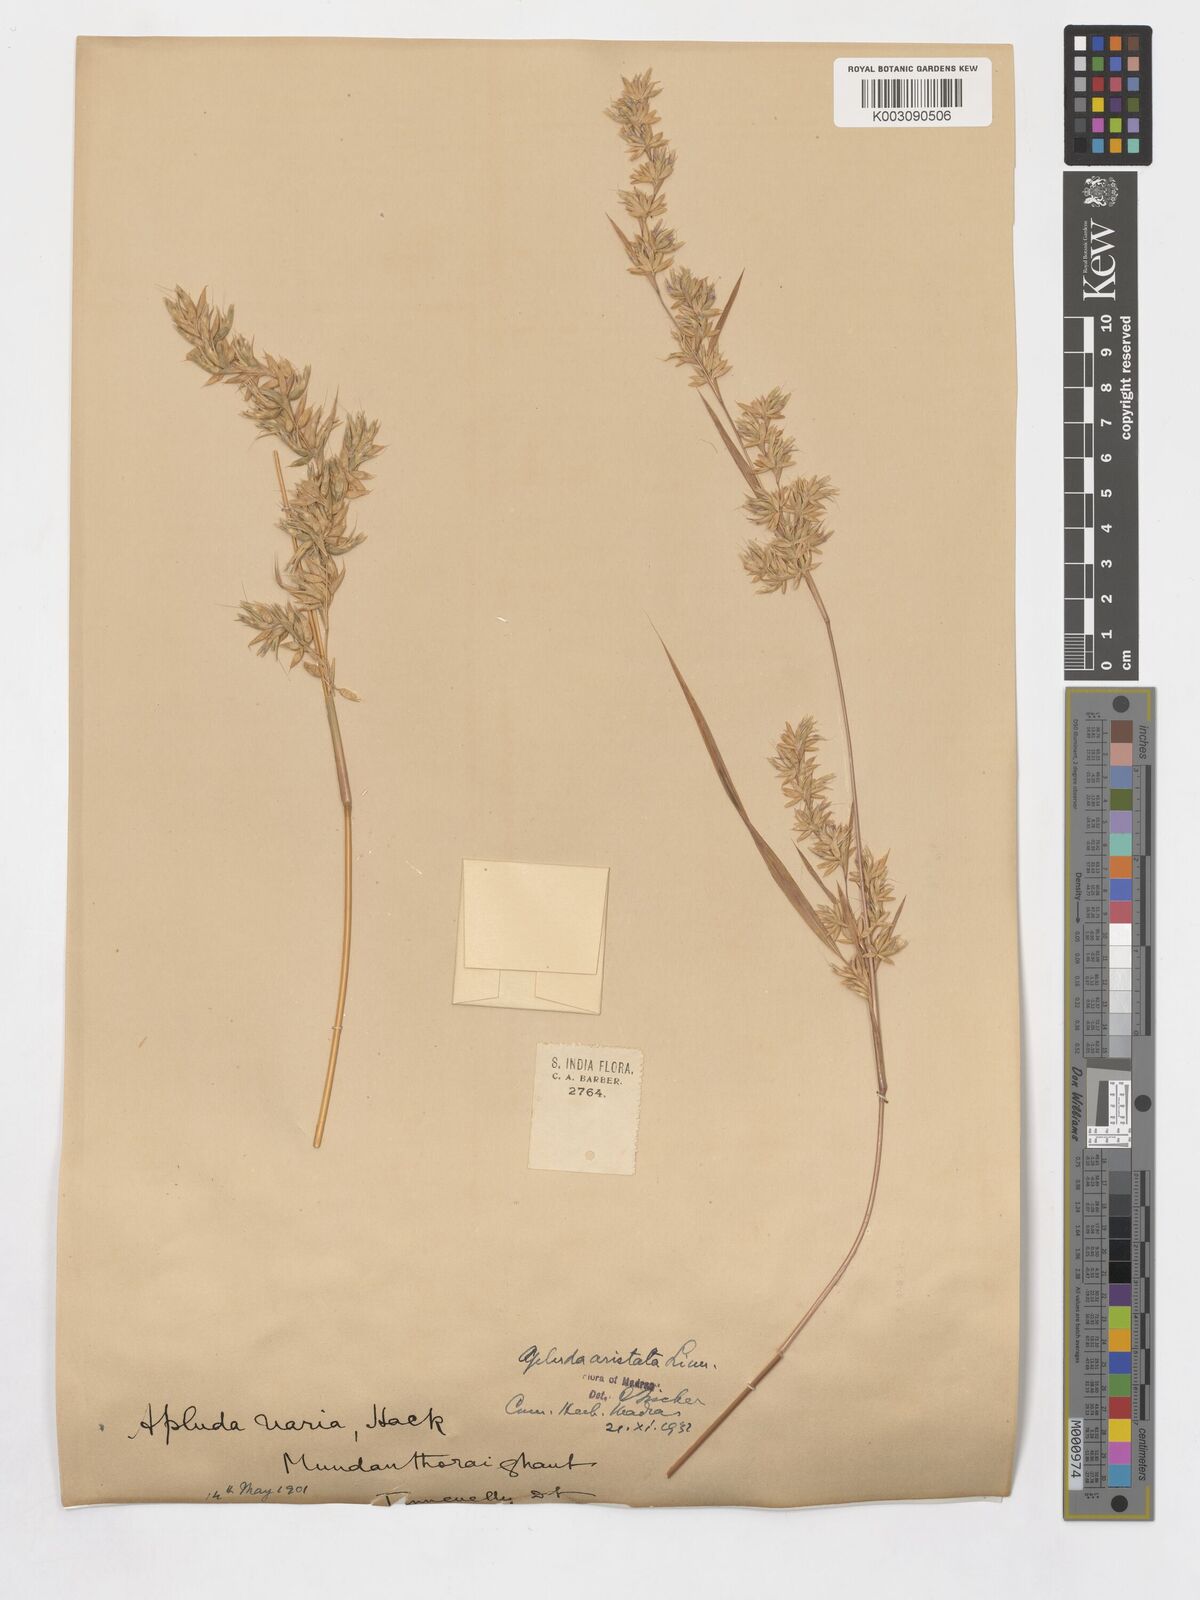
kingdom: Plantae
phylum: Tracheophyta
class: Liliopsida
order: Poales
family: Poaceae
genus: Apluda
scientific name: Apluda mutica
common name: Mauritian grass
